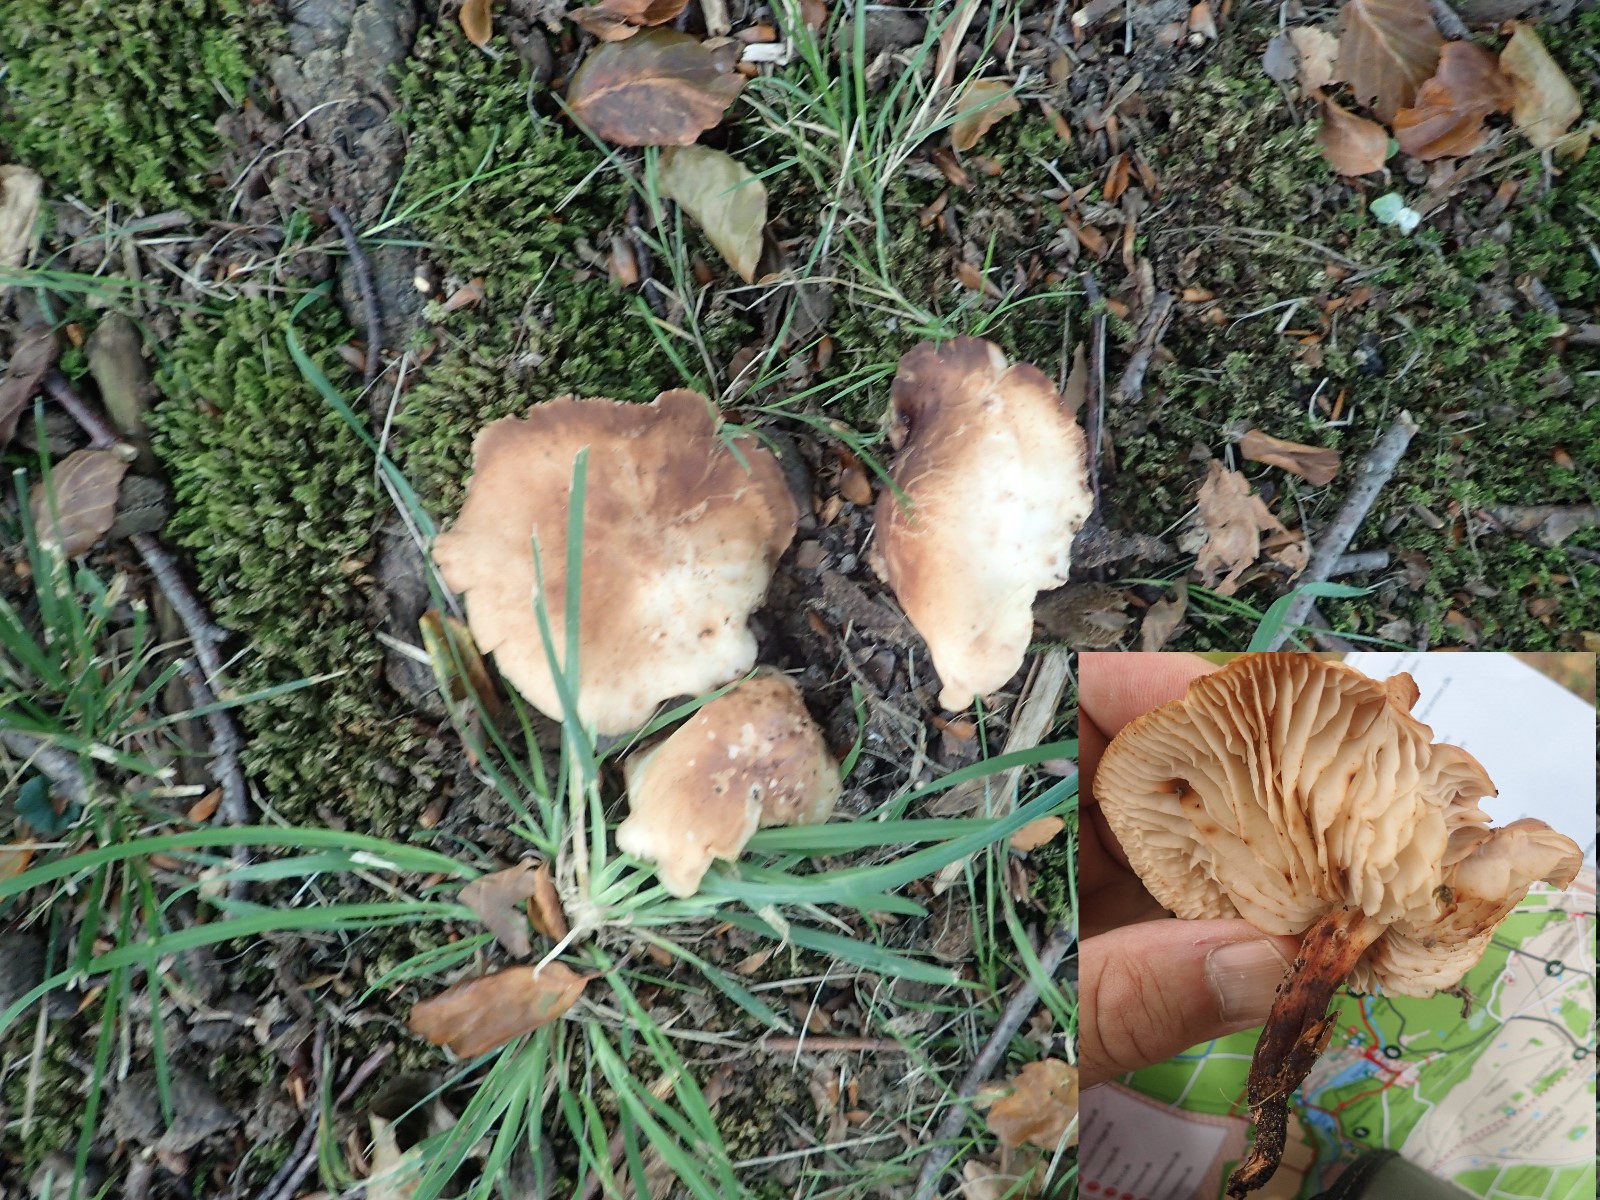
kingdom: Fungi
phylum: Basidiomycota
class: Agaricomycetes
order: Agaricales
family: Omphalotaceae
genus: Gymnopus
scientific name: Gymnopus fusipes
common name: tenstokket fladhat
